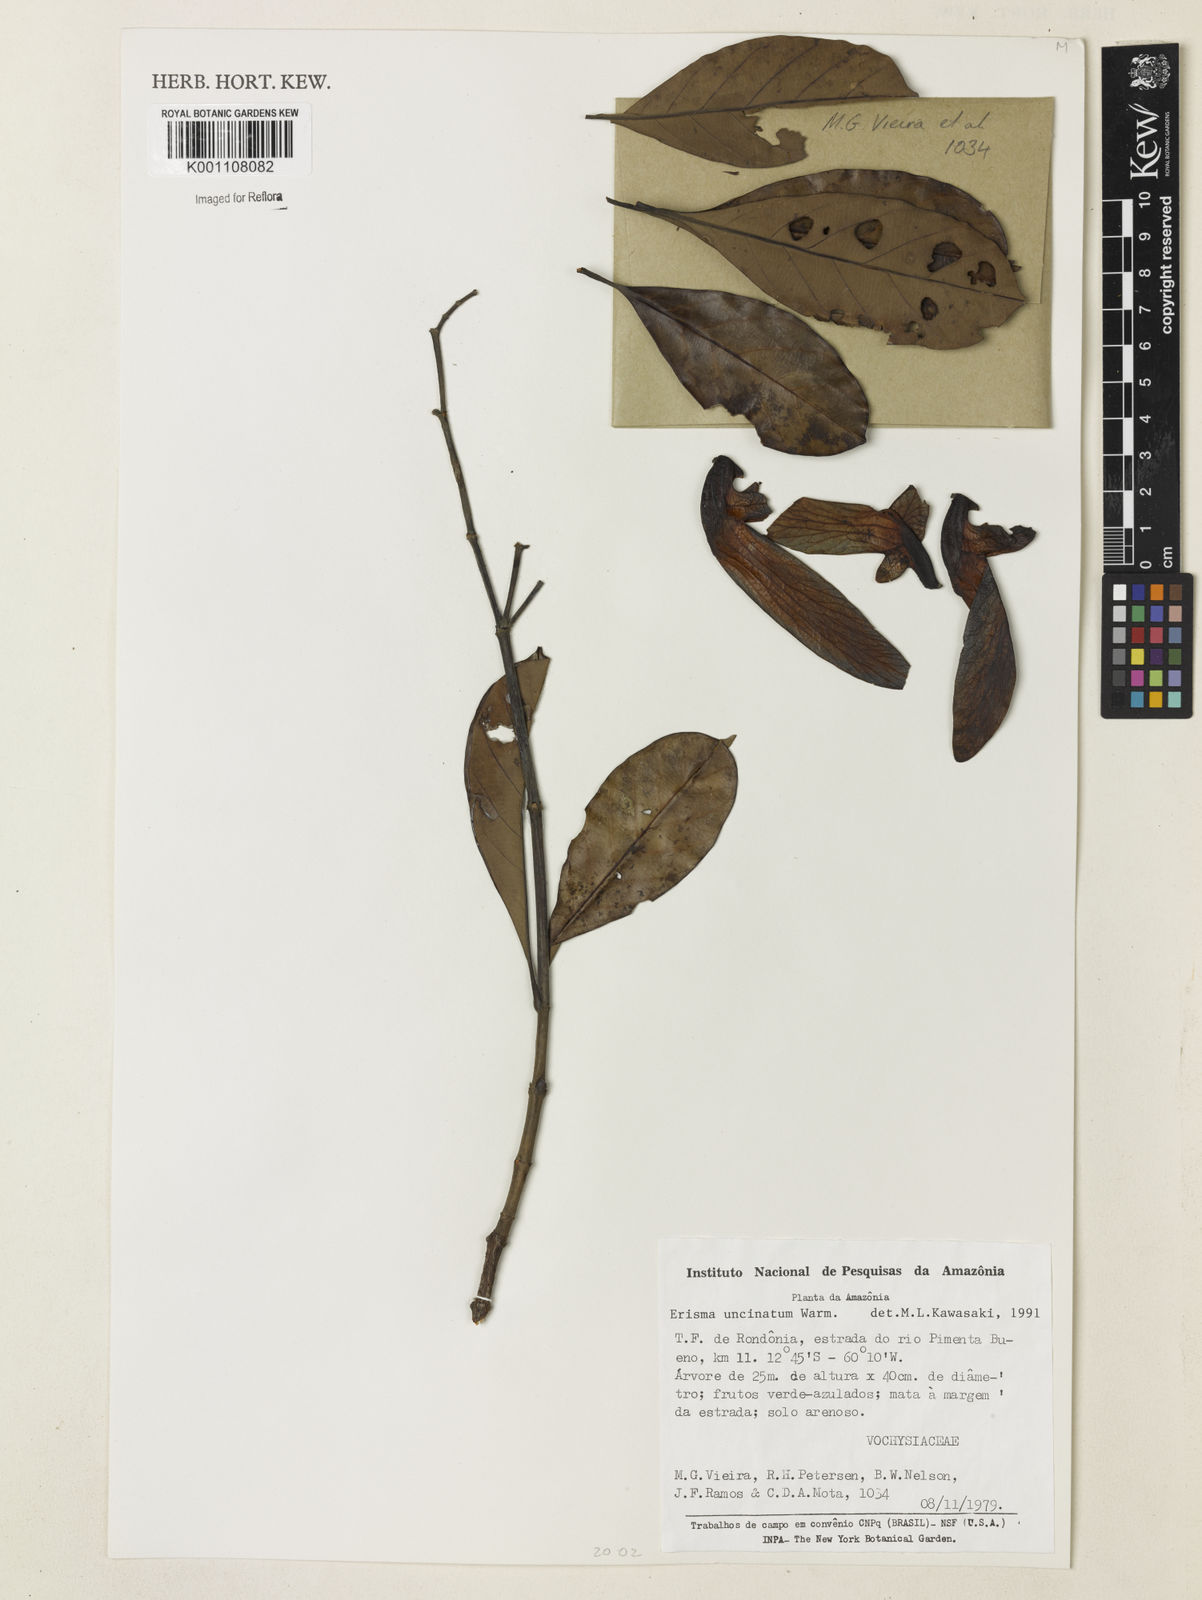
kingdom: Plantae
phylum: Tracheophyta
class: Magnoliopsida
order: Myrtales
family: Vochysiaceae
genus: Erisma
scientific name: Erisma uncinatum
